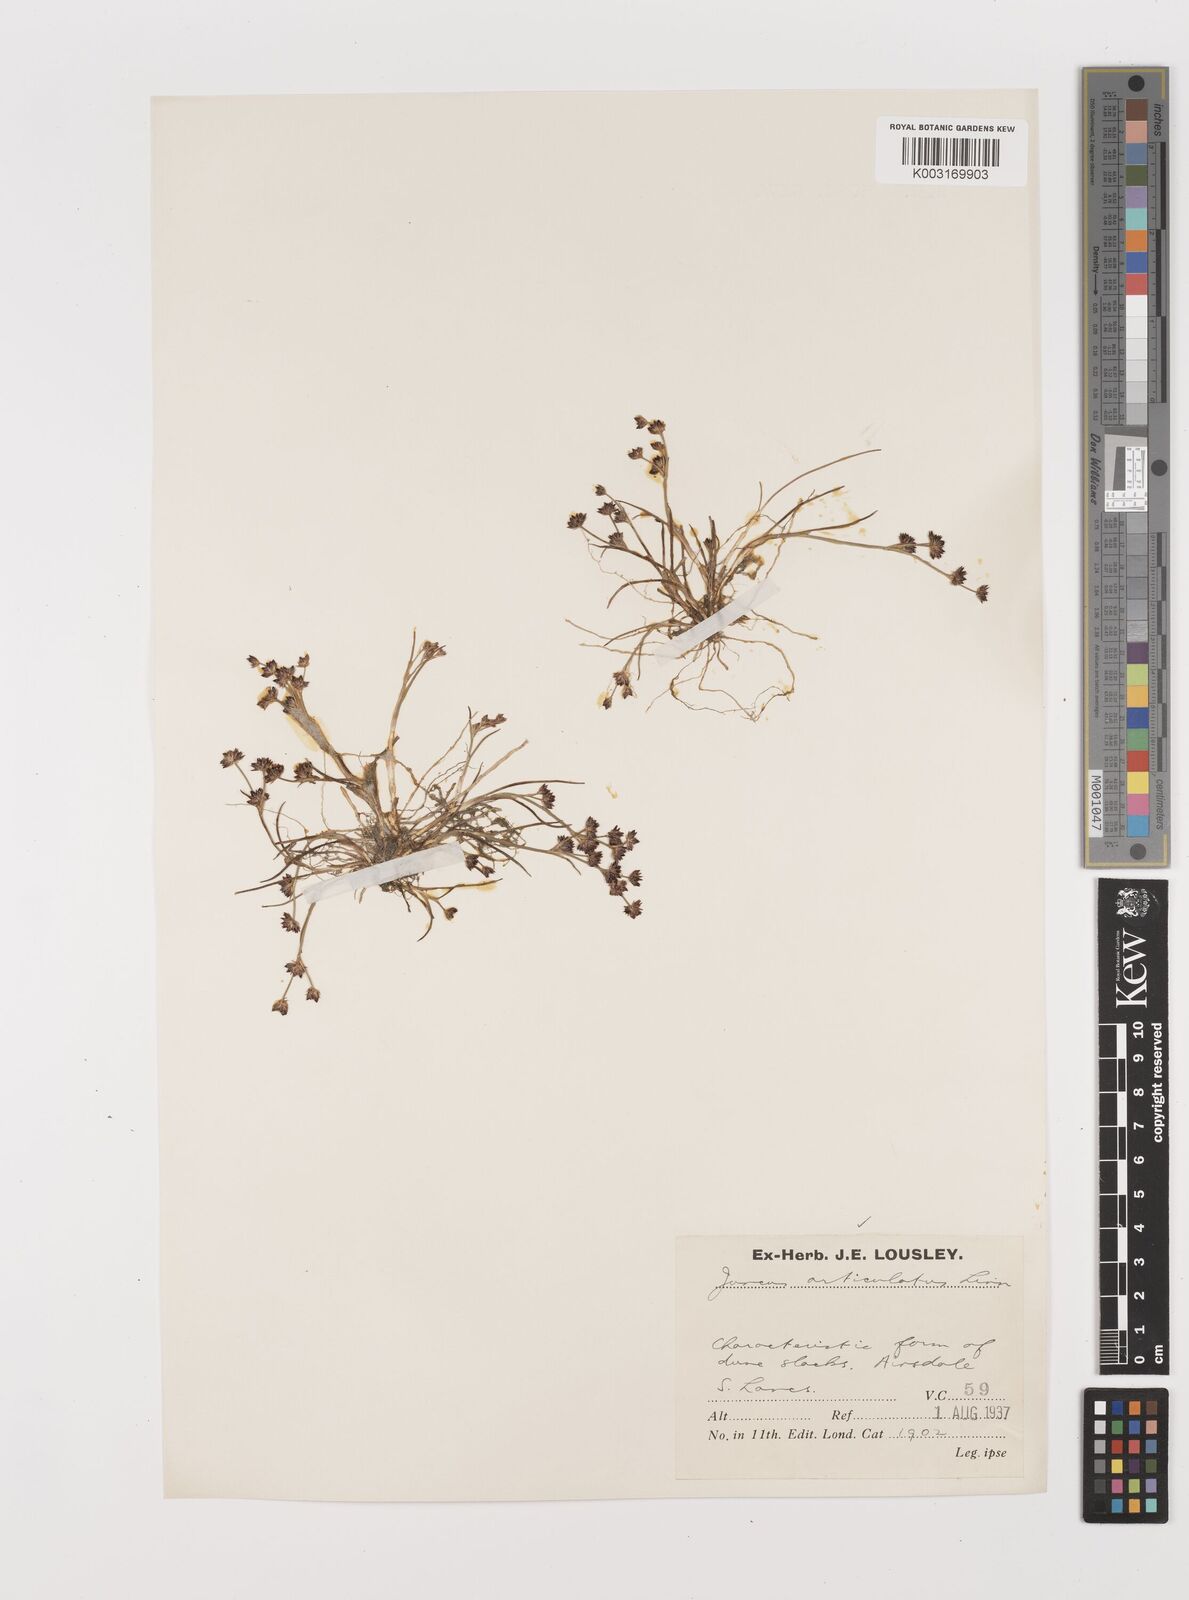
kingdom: Plantae
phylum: Tracheophyta
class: Liliopsida
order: Poales
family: Juncaceae
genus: Juncus
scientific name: Juncus articulatus
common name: Jointed rush
